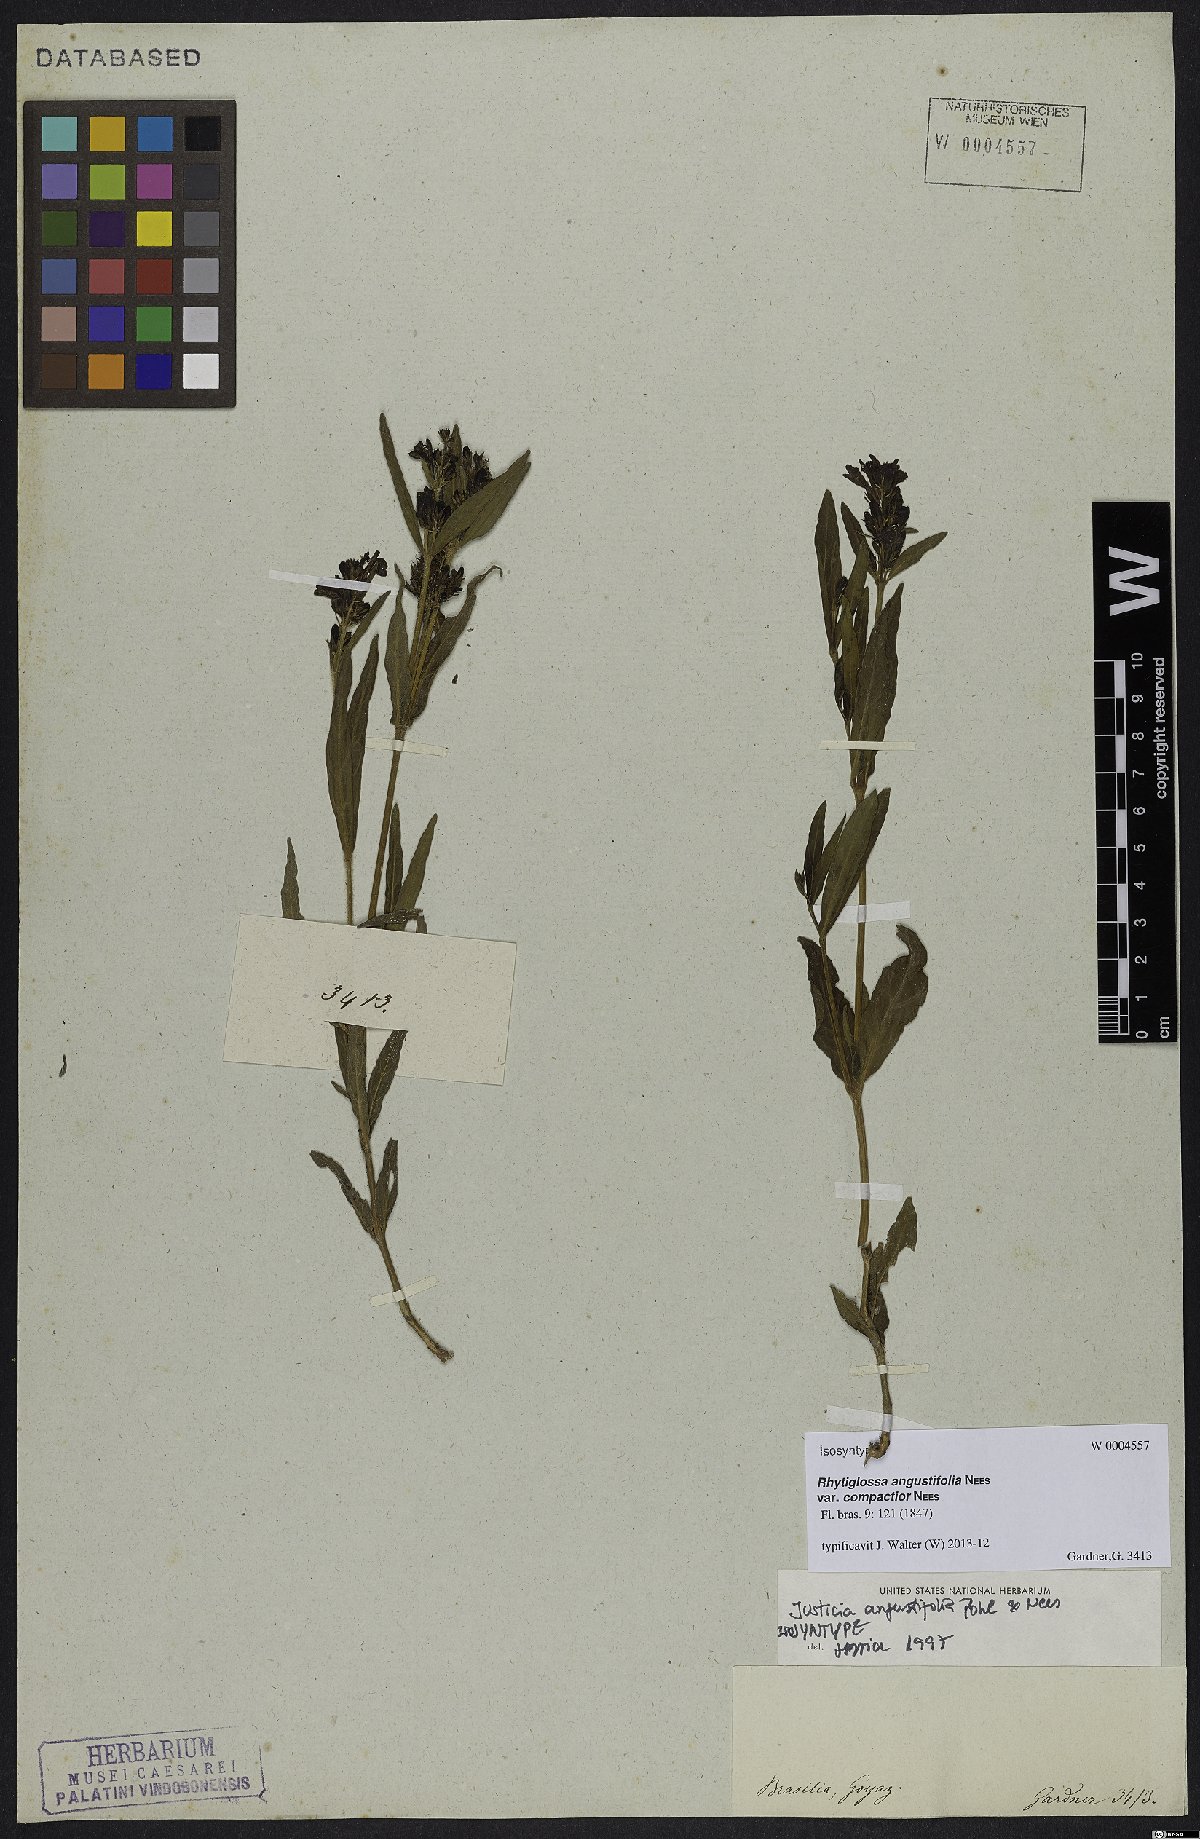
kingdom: Plantae
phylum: Tracheophyta
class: Magnoliopsida
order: Lamiales
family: Acanthaceae
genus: Dianthera
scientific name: Dianthera angustifolia
